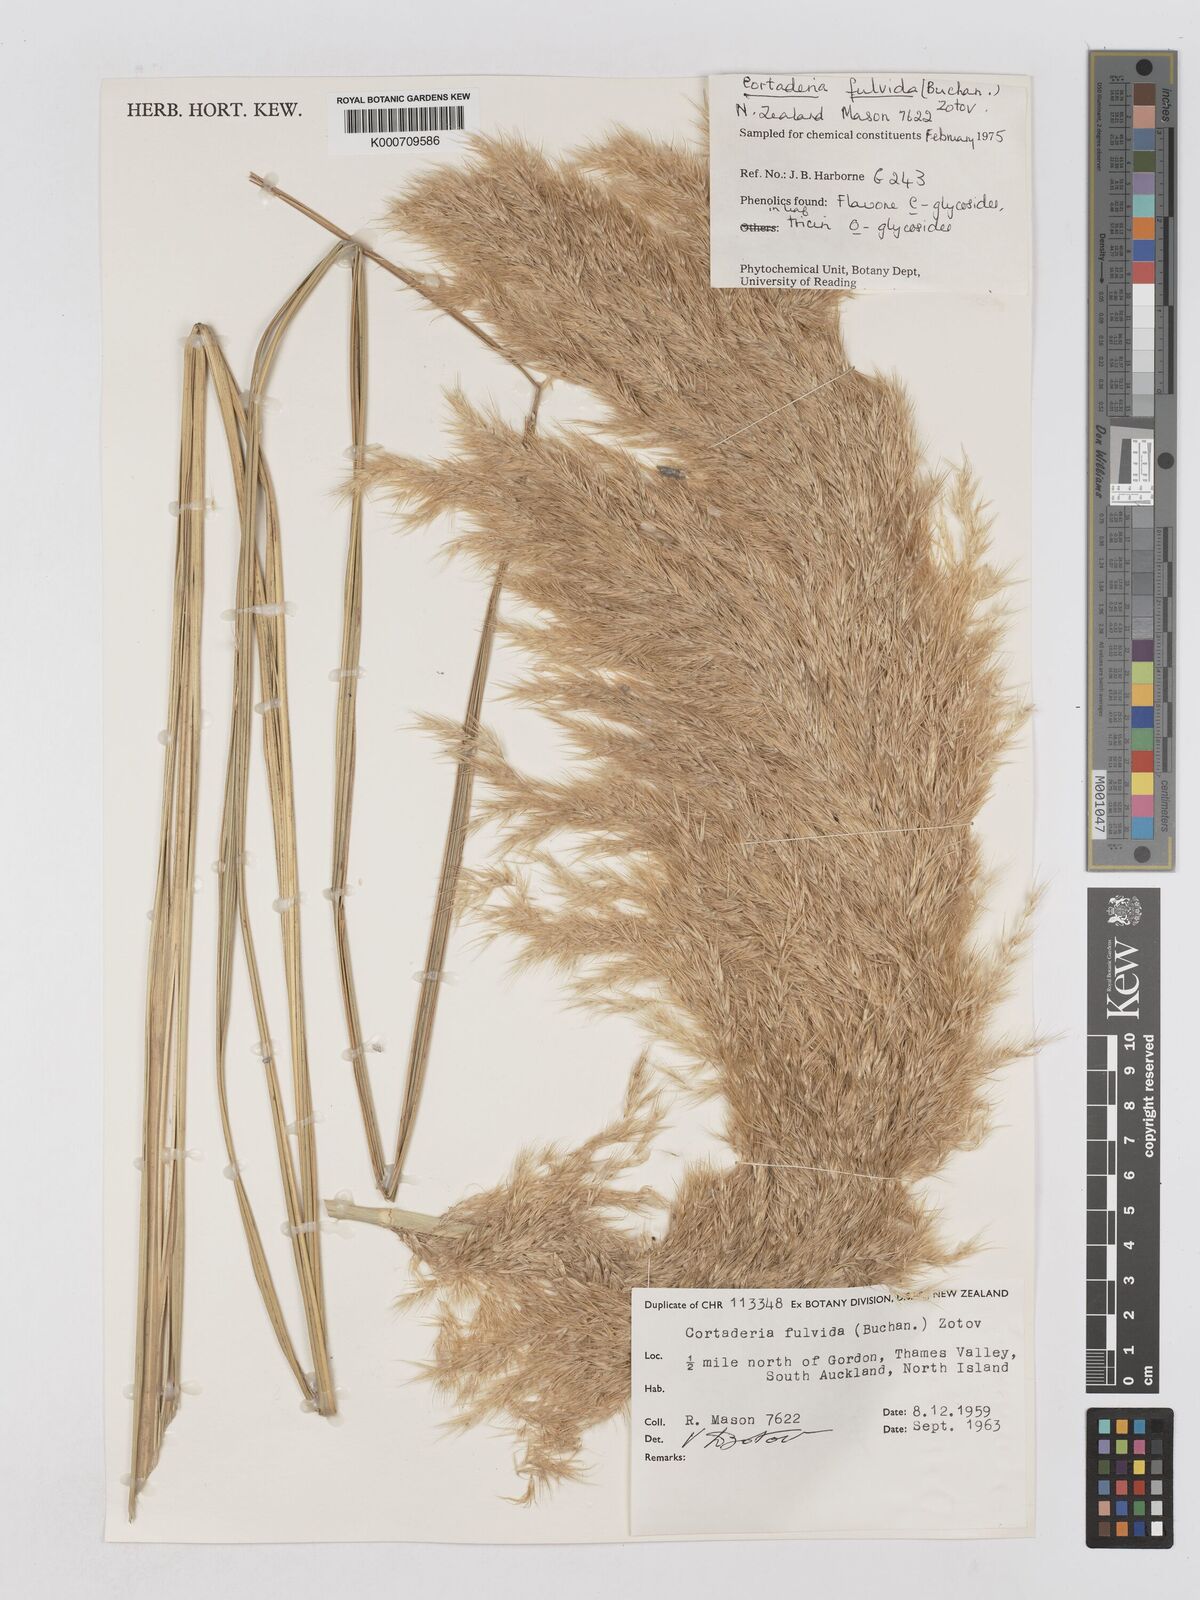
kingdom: Plantae
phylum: Tracheophyta
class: Liliopsida
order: Poales
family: Poaceae
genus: Austroderia
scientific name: Austroderia fulvida
